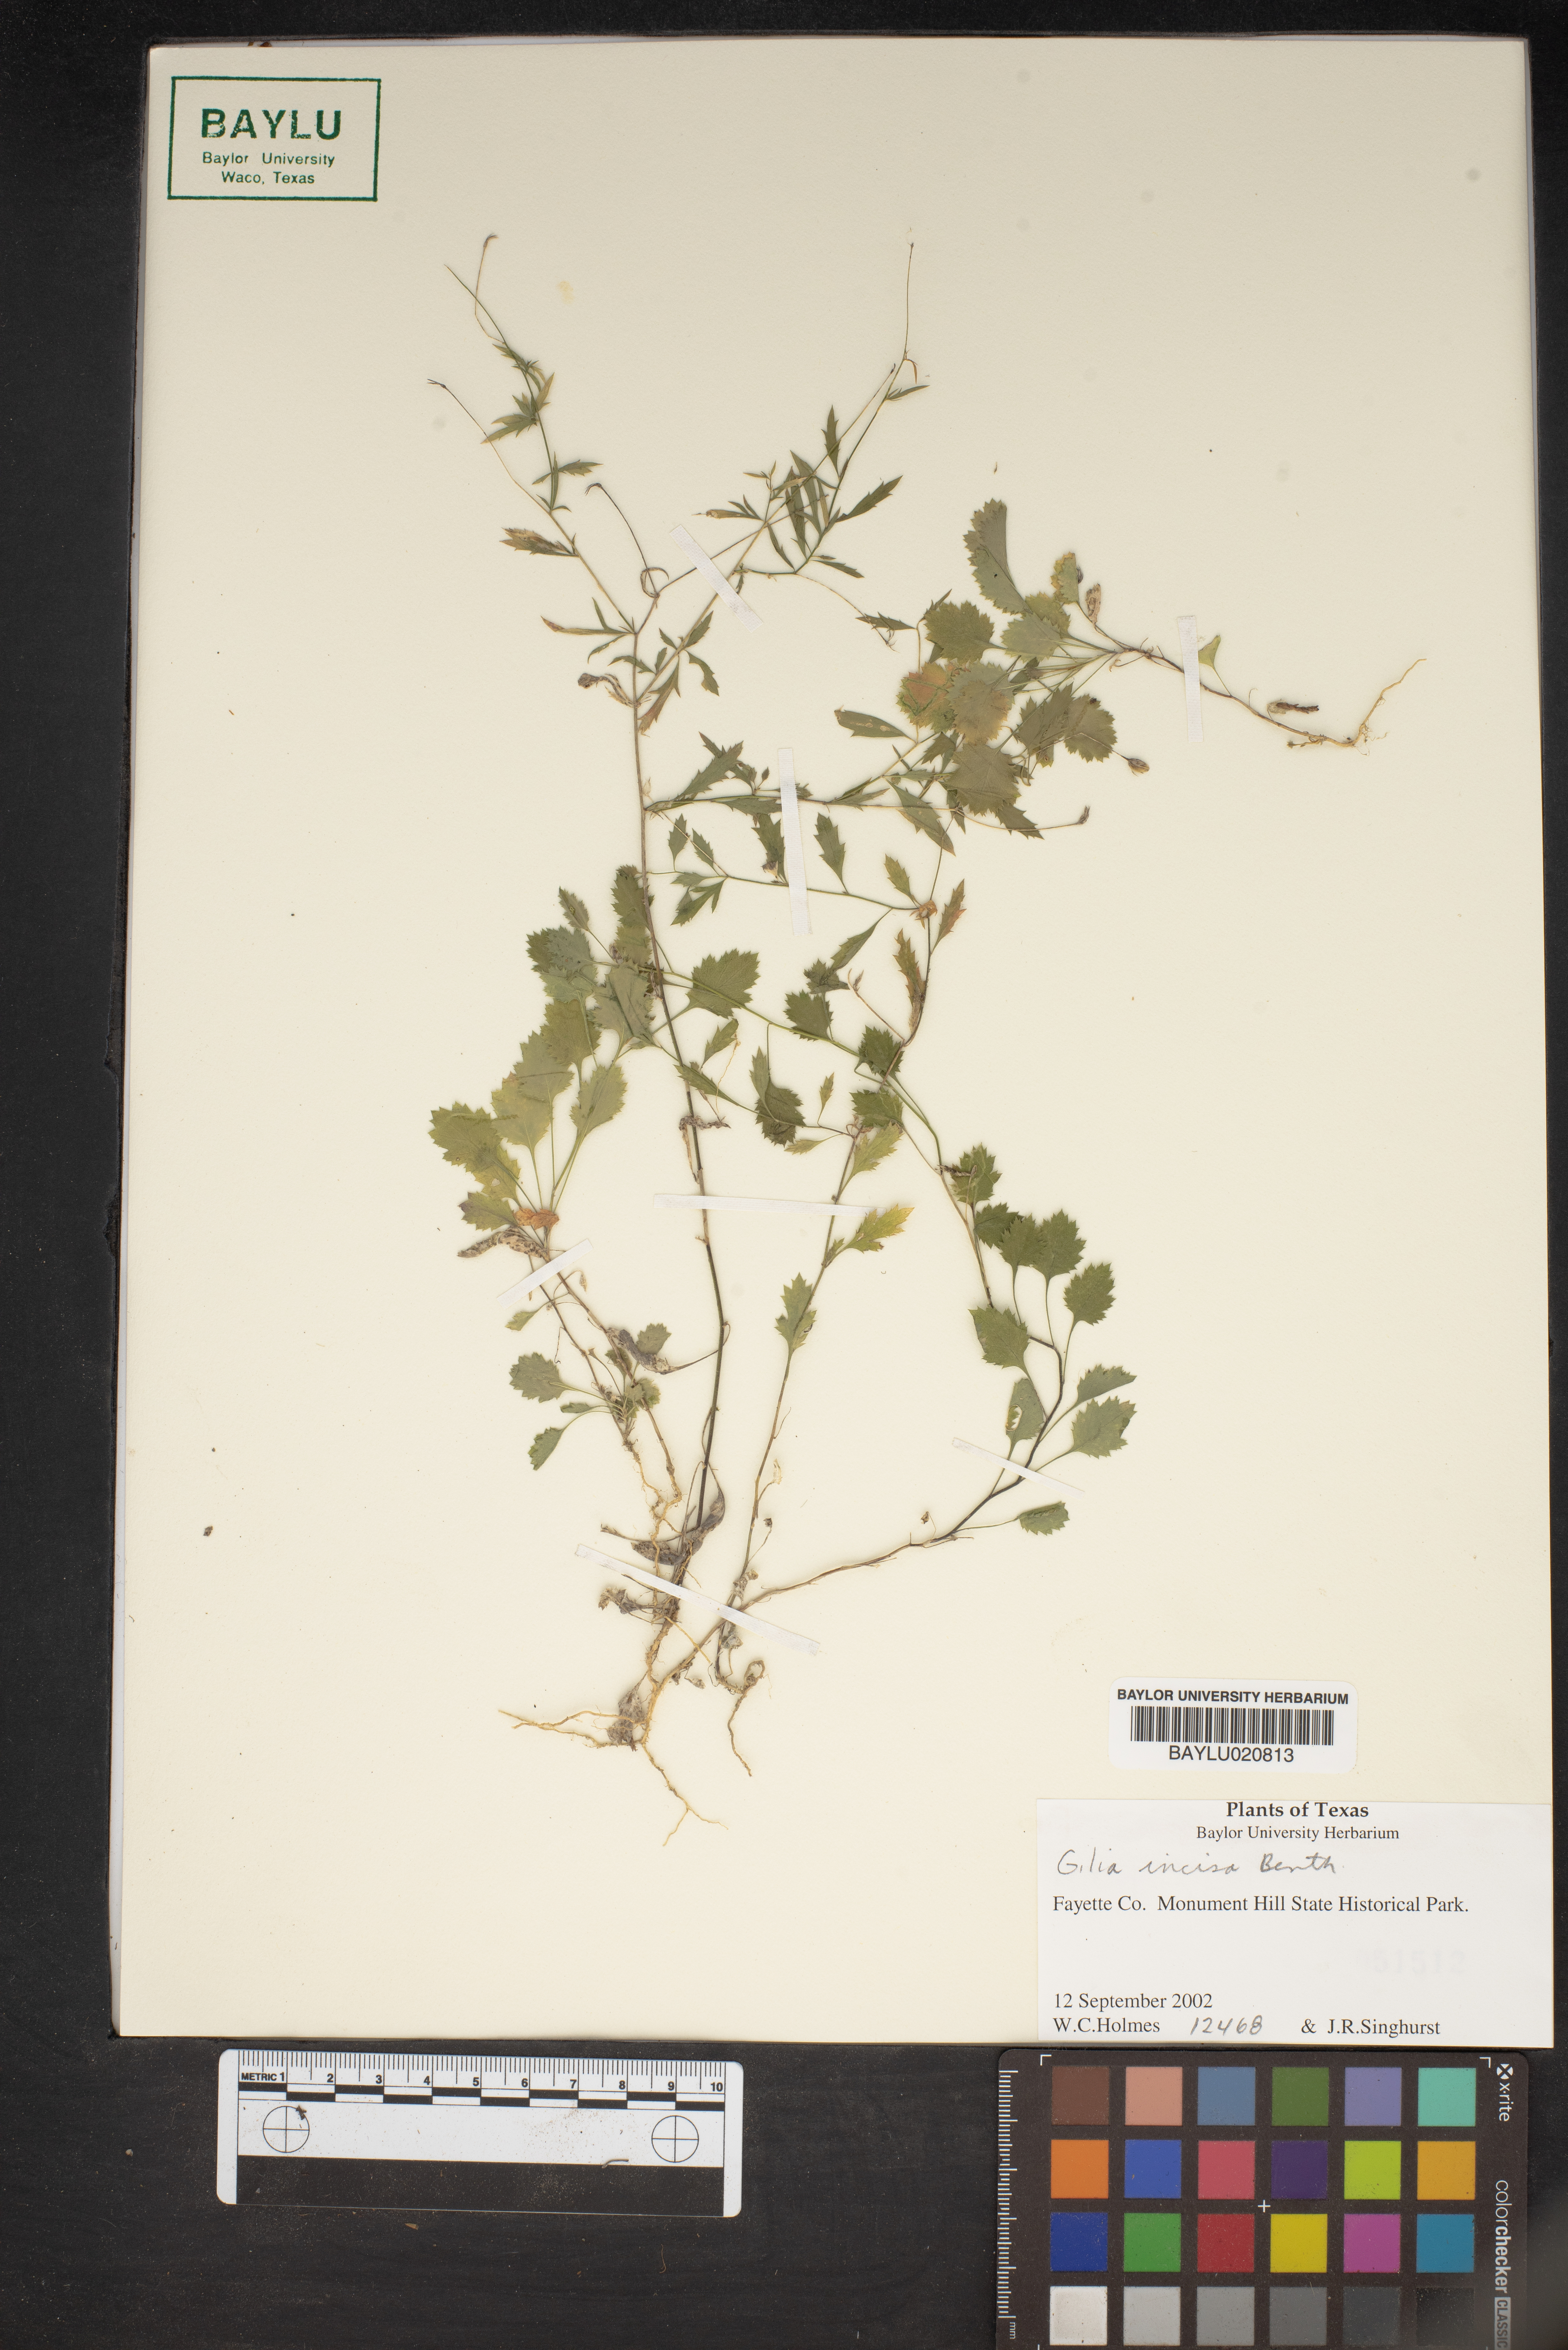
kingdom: Plantae
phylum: Tracheophyta
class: Magnoliopsida
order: Ericales
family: Polemoniaceae
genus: Giliastrum
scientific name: Giliastrum incisum
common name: Splitleaf gilia
